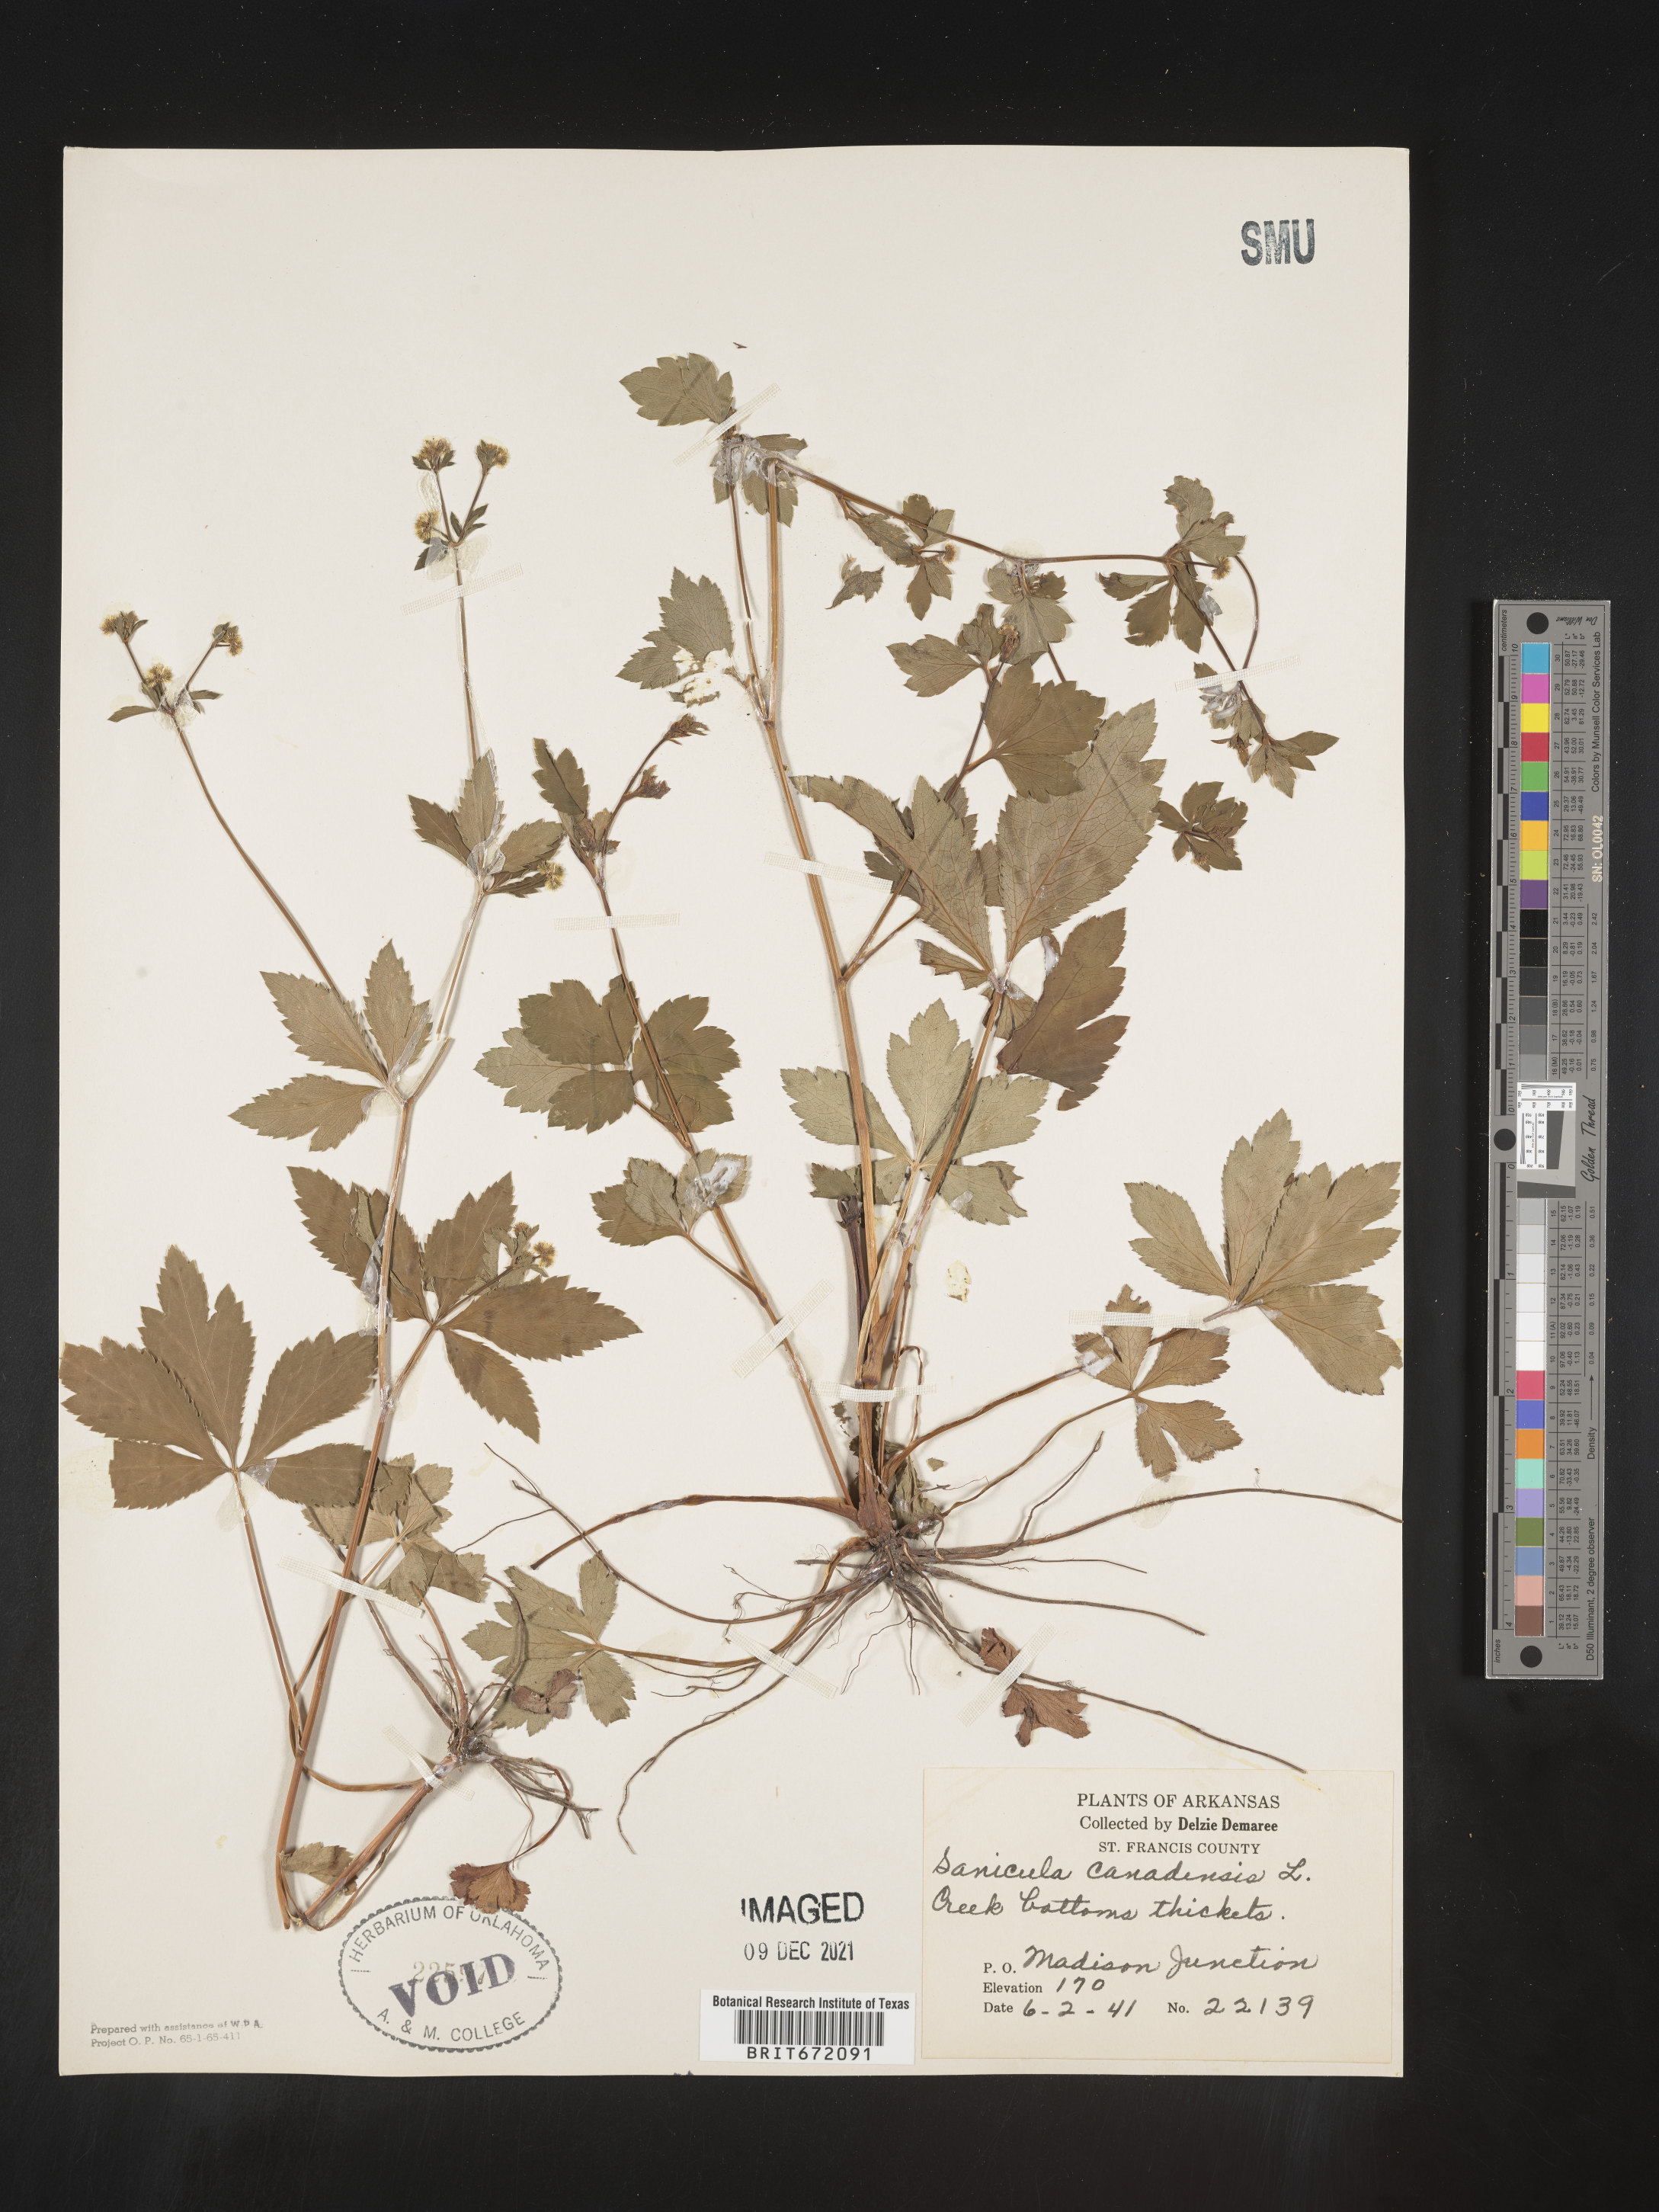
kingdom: Plantae
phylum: Tracheophyta
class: Magnoliopsida
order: Apiales
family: Apiaceae
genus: Sanicula
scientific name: Sanicula canadensis
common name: Canada sanicle
